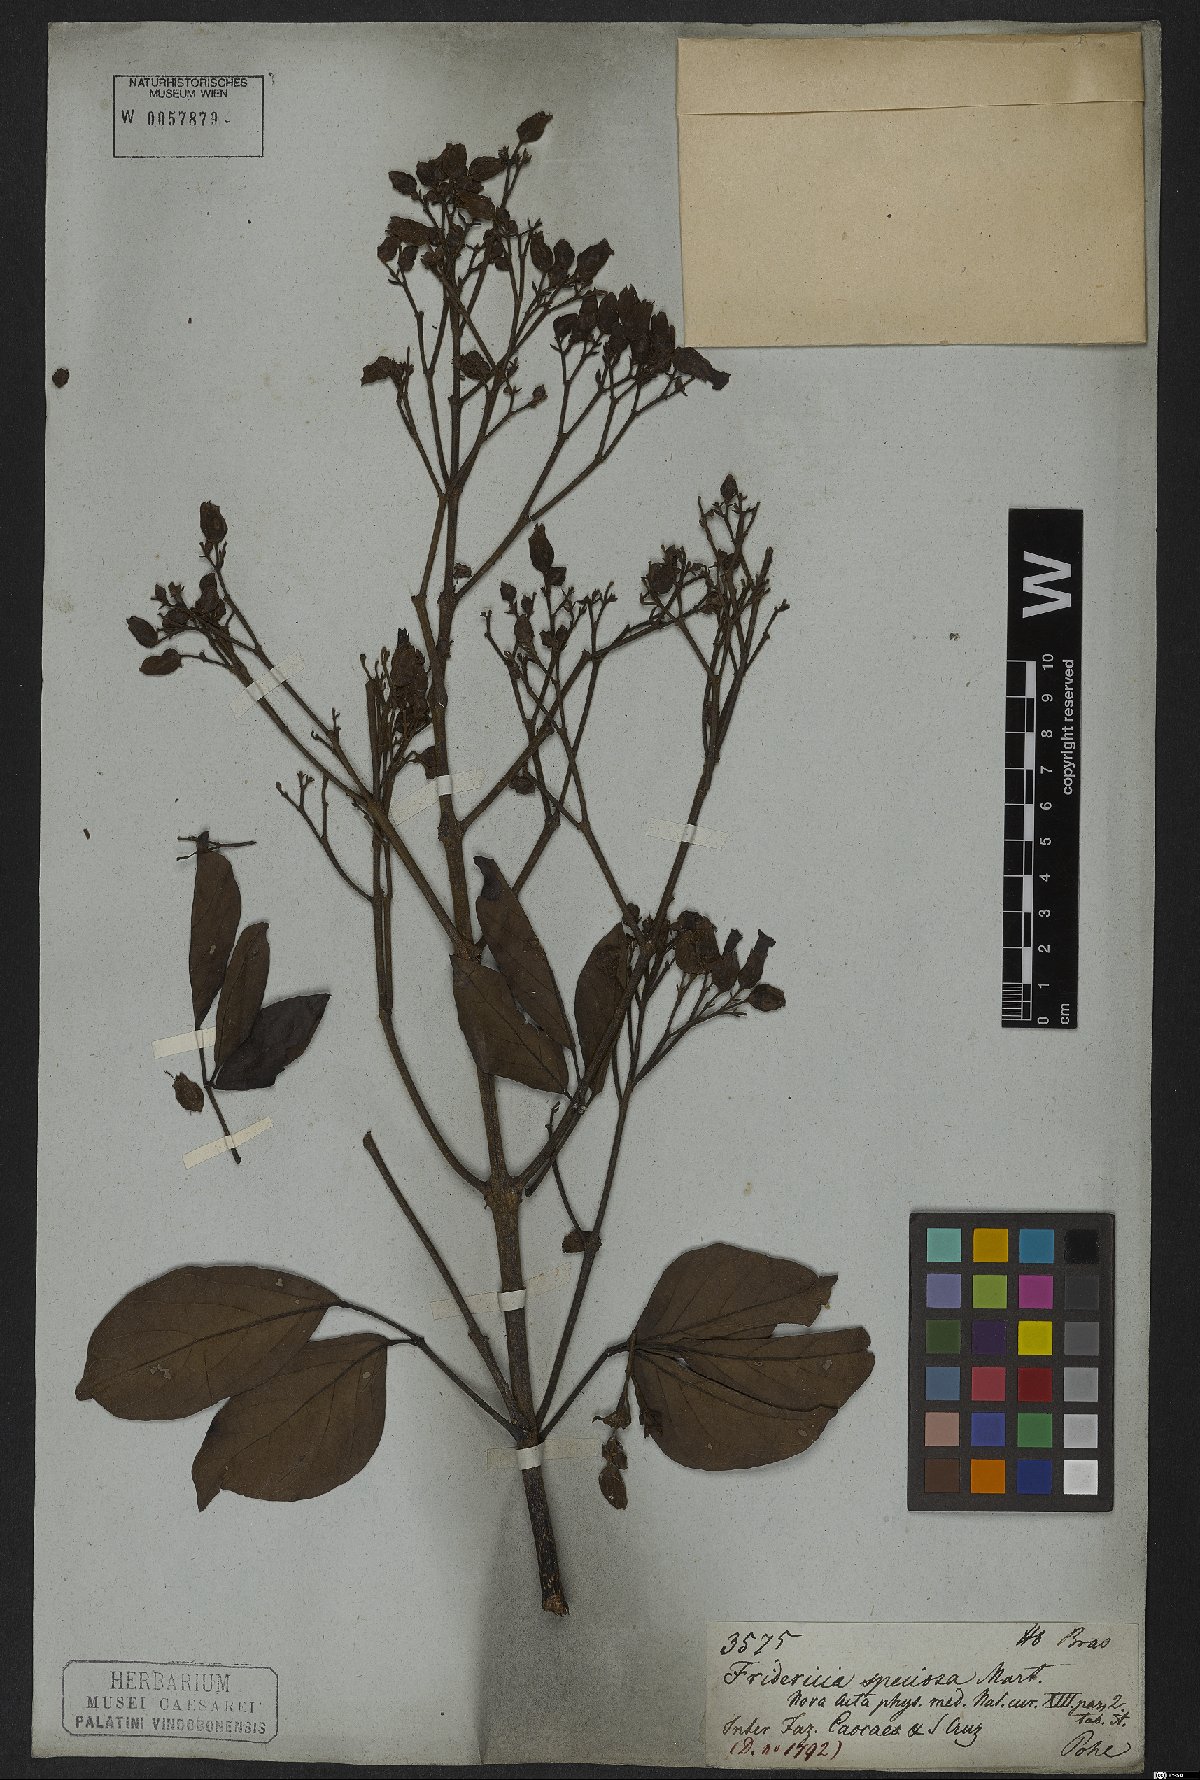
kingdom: Plantae
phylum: Tracheophyta
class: Magnoliopsida
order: Lamiales
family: Bignoniaceae
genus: Fridericia
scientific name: Fridericia speciosa
